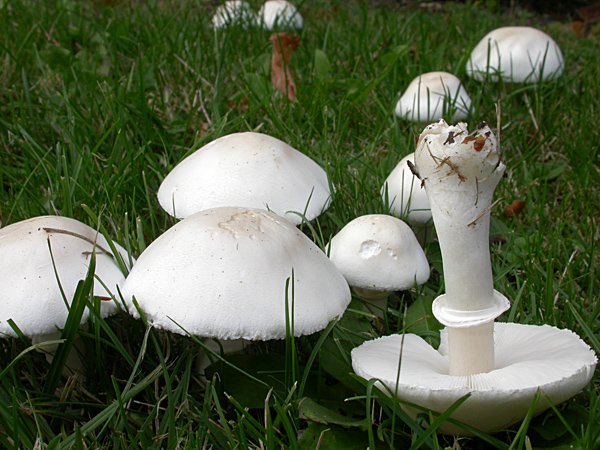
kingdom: Fungi
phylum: Basidiomycota
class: Agaricomycetes
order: Agaricales
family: Agaricaceae
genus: Leucoagaricus
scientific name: Leucoagaricus leucothites
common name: rosabladet silkehat
